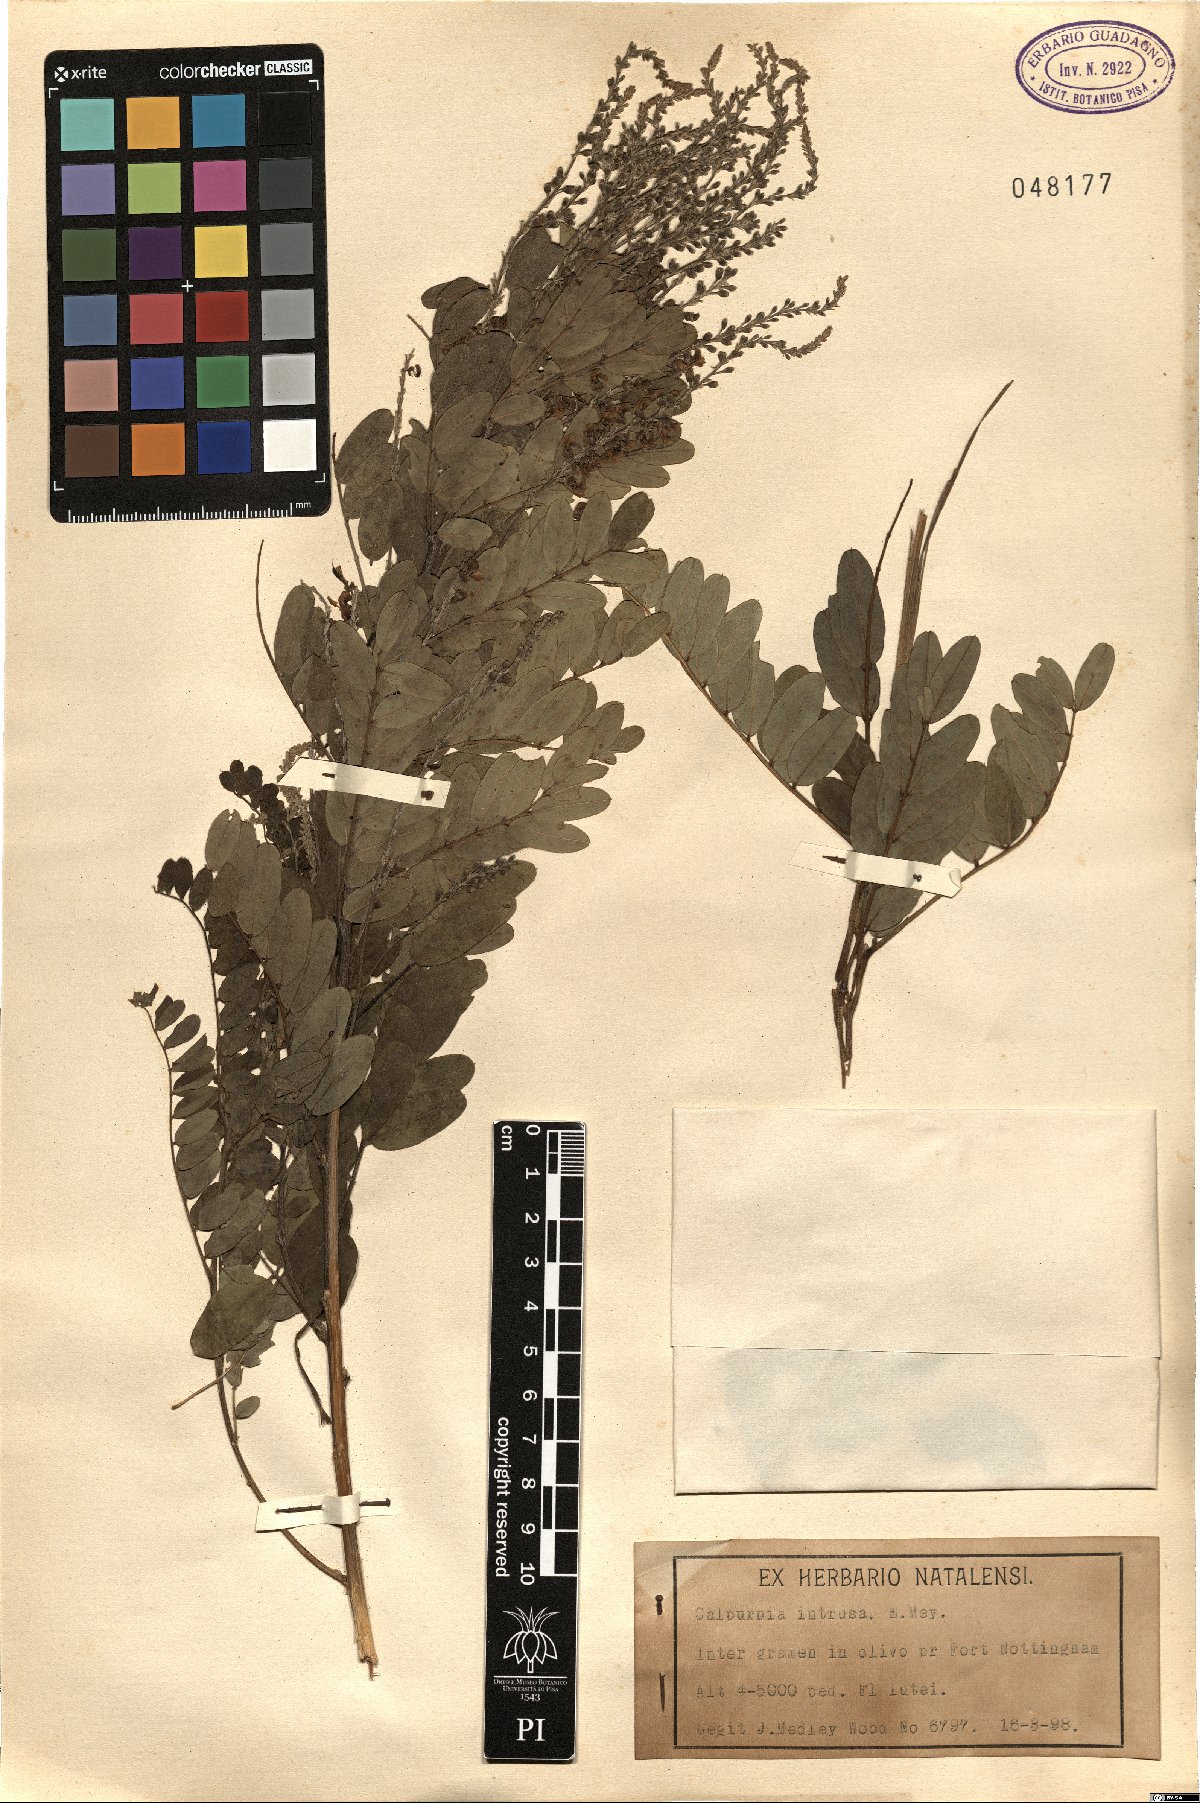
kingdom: Plantae
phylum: Tracheophyta
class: Magnoliopsida
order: Fabales
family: Fabaceae
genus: Calpurnia
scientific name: Calpurnia intrusa
